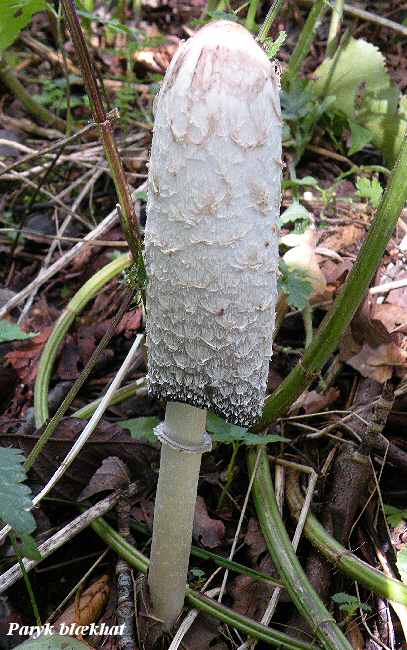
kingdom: Fungi
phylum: Basidiomycota
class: Agaricomycetes
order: Agaricales
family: Agaricaceae
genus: Coprinus
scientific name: Coprinus comatus
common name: stor parykhat
